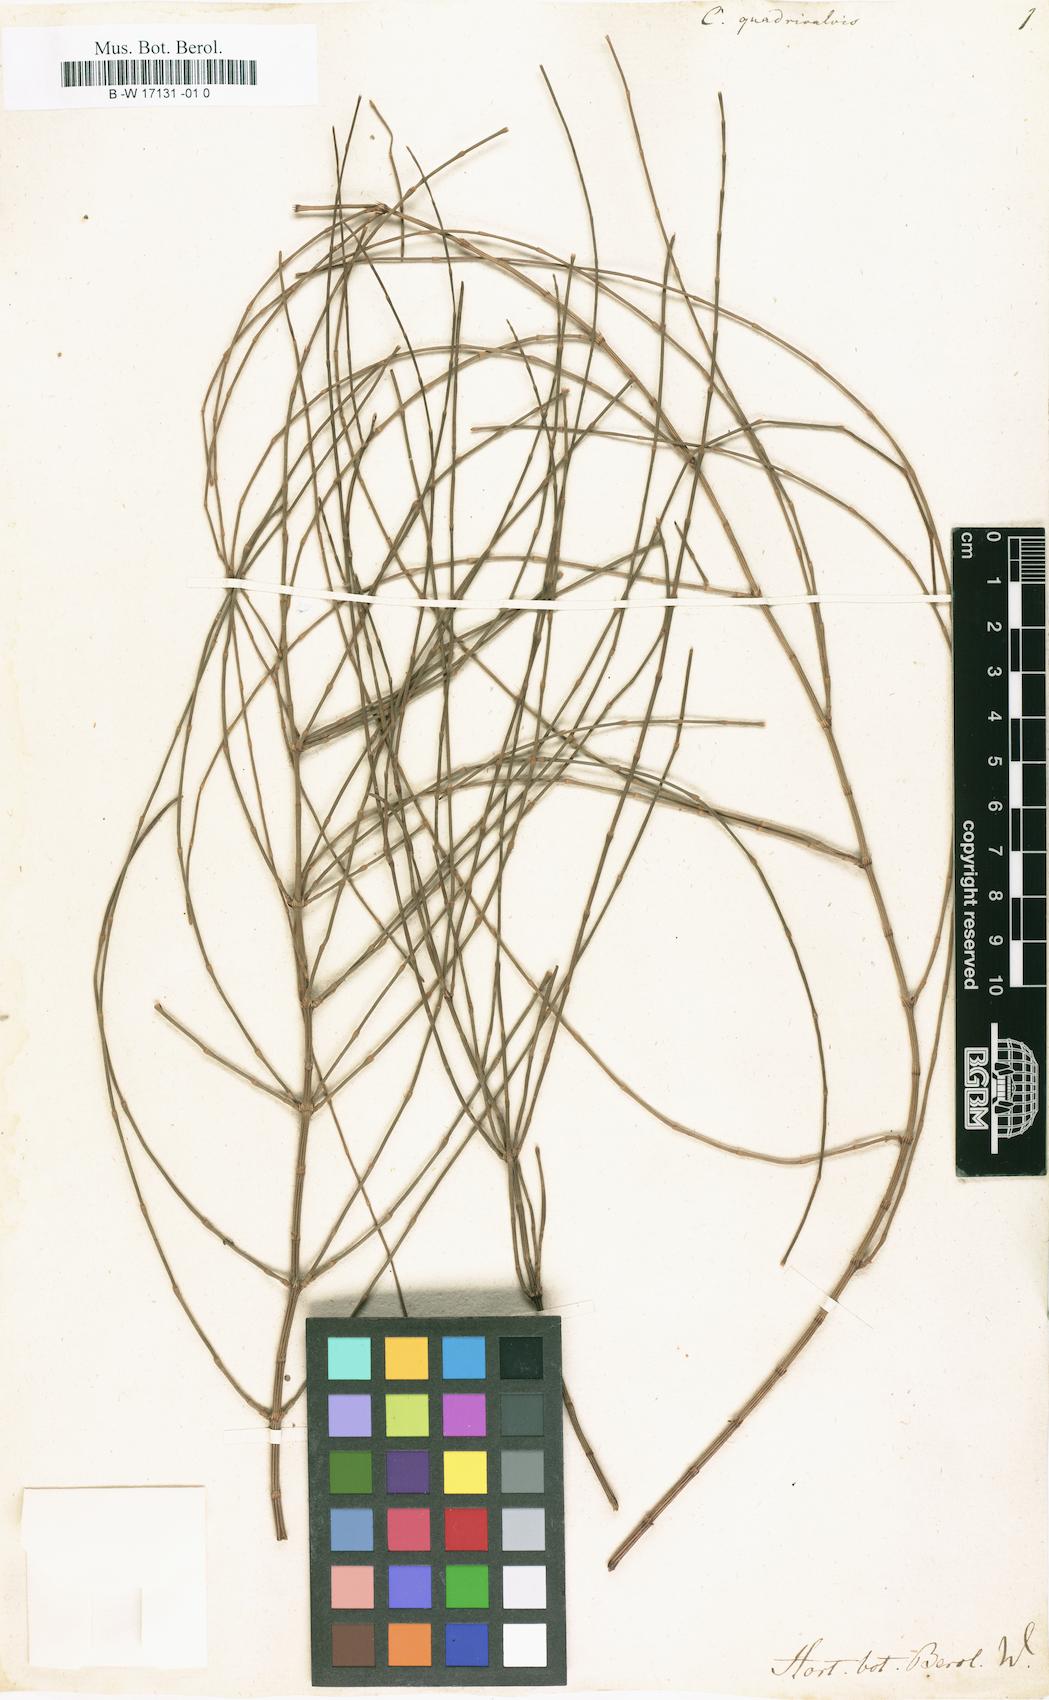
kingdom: Plantae
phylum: Tracheophyta
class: Magnoliopsida
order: Fagales
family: Casuarinaceae
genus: Allocasuarina
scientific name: Allocasuarina verticillata
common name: Drooping she-oak
